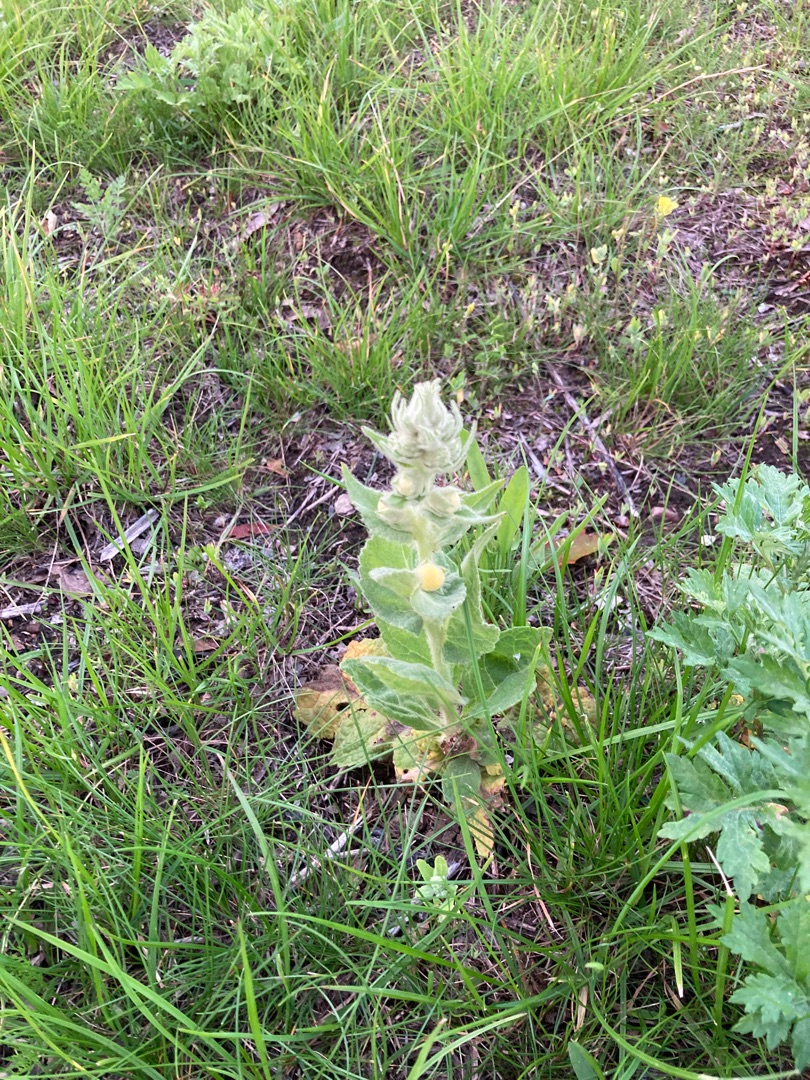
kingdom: Plantae
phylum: Tracheophyta
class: Magnoliopsida
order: Lamiales
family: Scrophulariaceae
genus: Verbascum
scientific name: Verbascum phlomoides
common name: Hjertebladet kongelys
